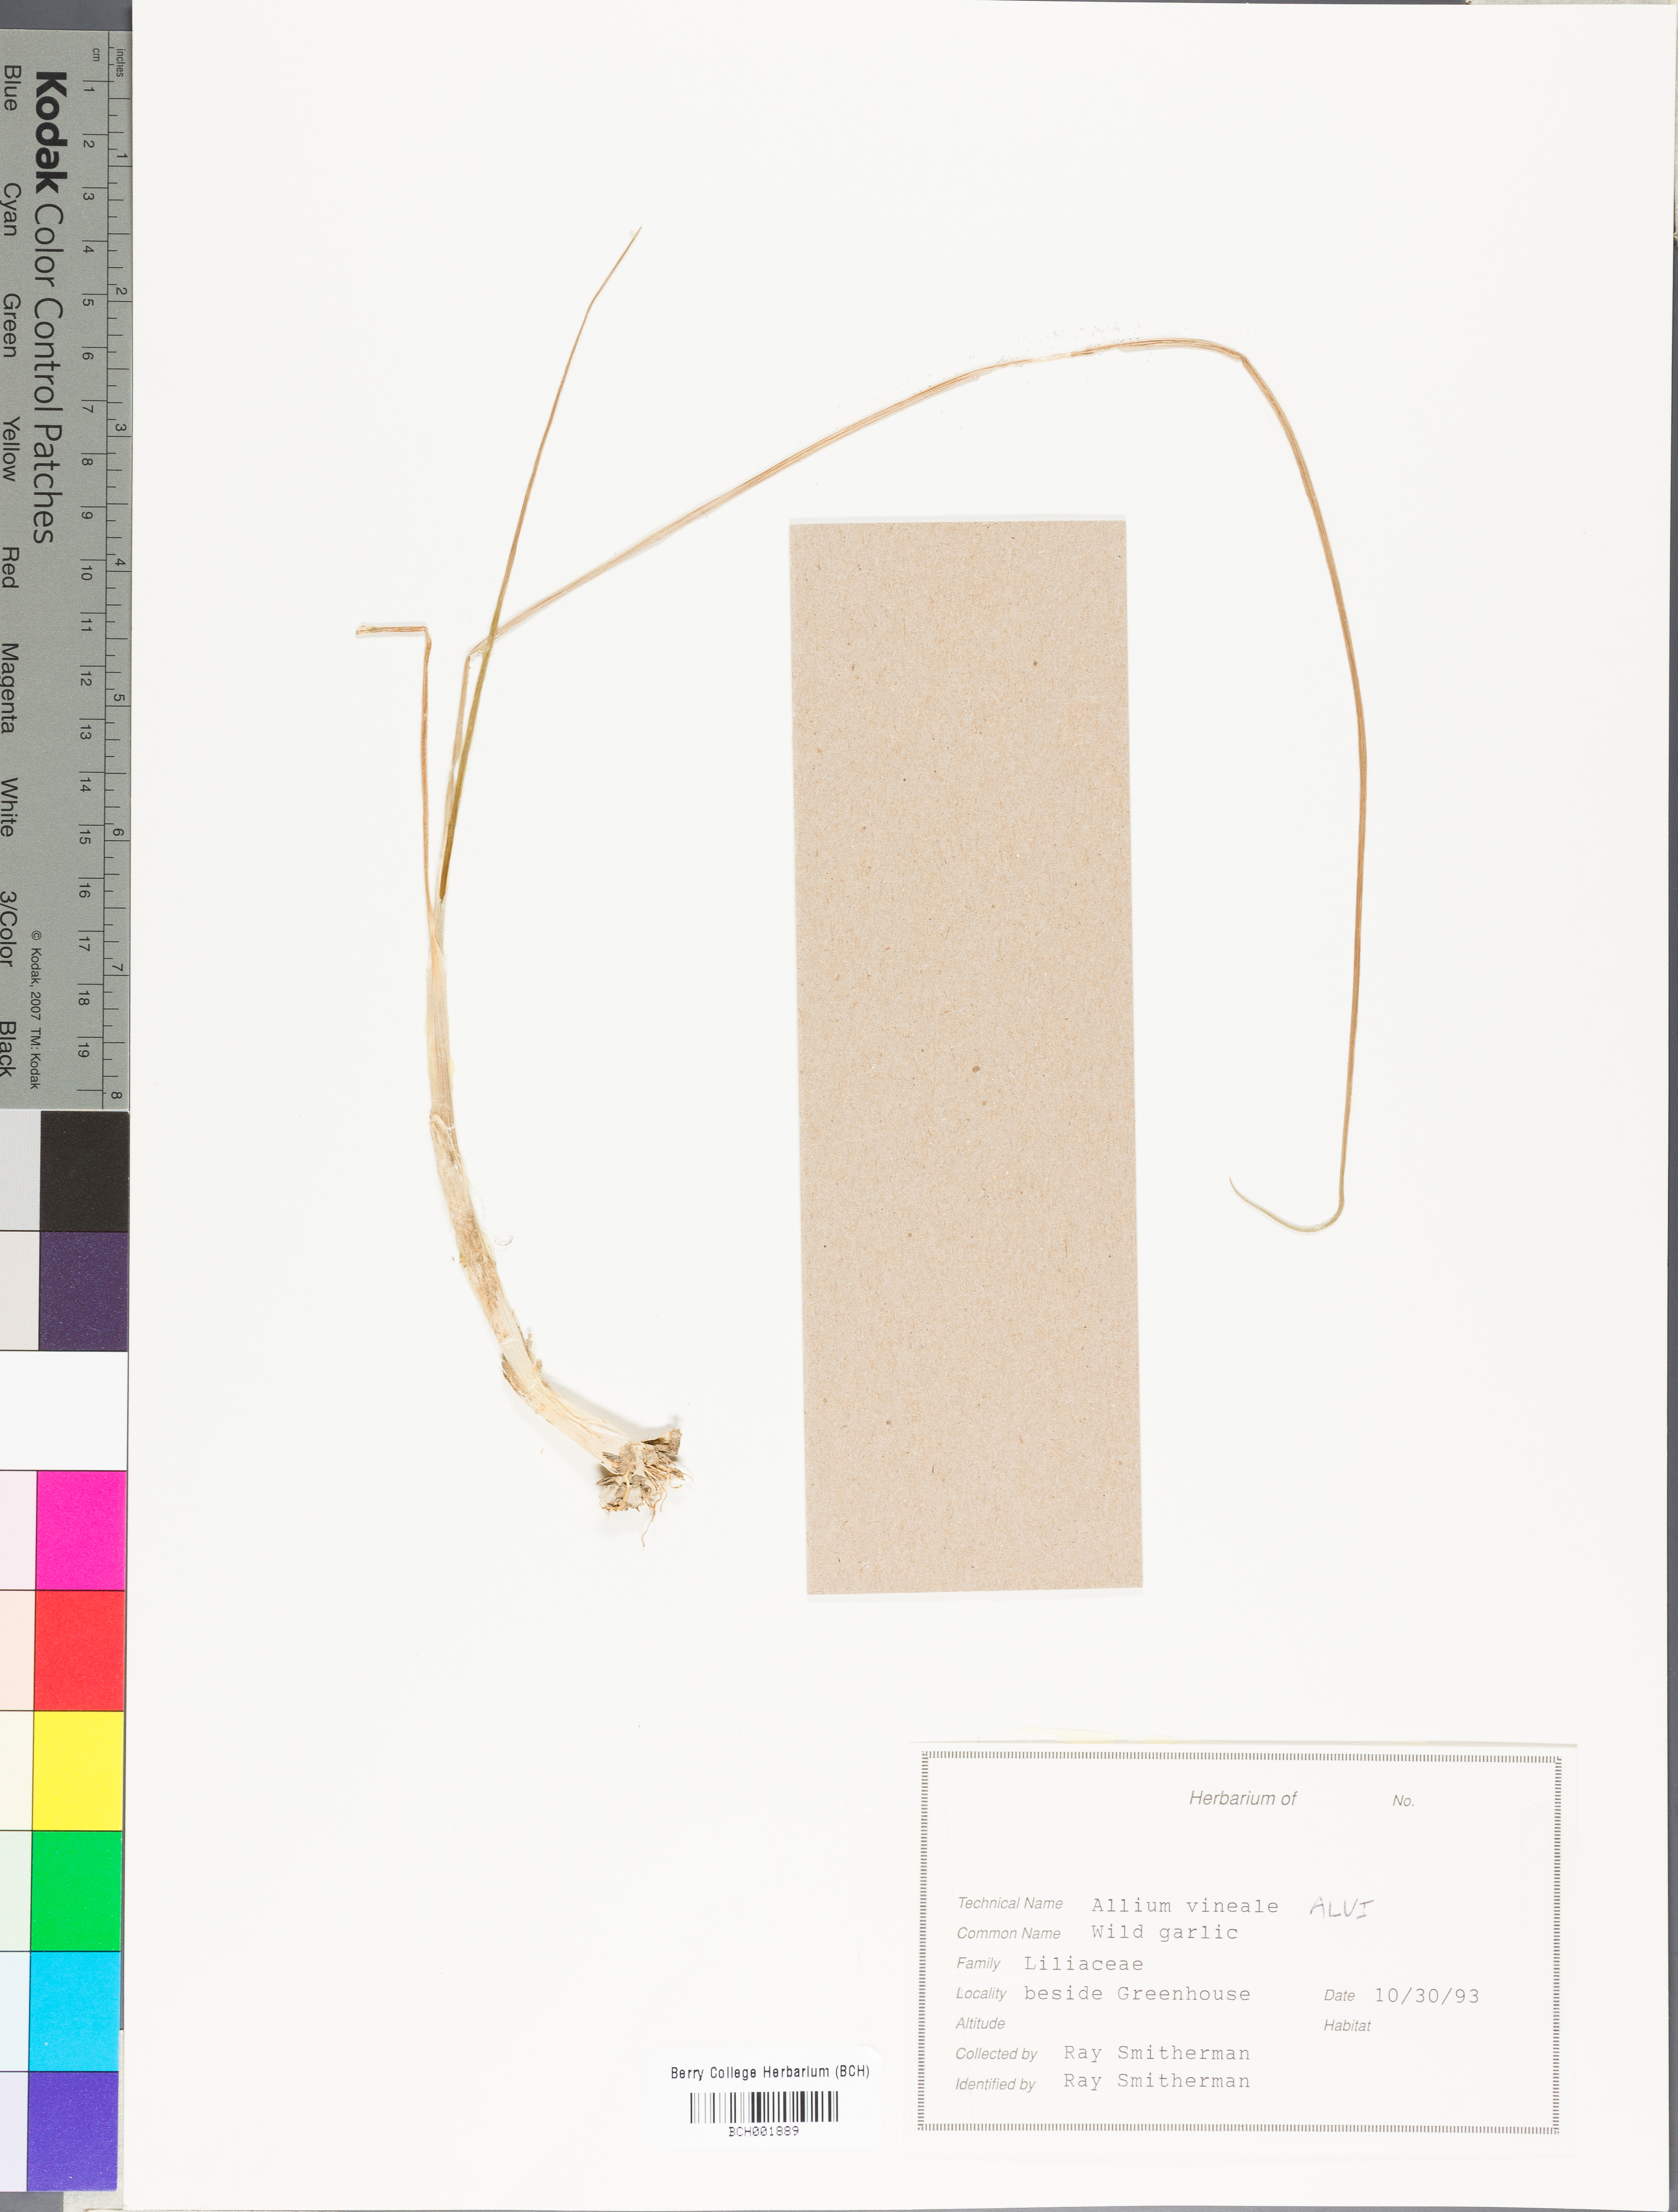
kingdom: Plantae
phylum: Tracheophyta
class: Liliopsida
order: Asparagales
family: Amaryllidaceae
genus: Allium
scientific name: Allium vineale
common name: Crow garlic
